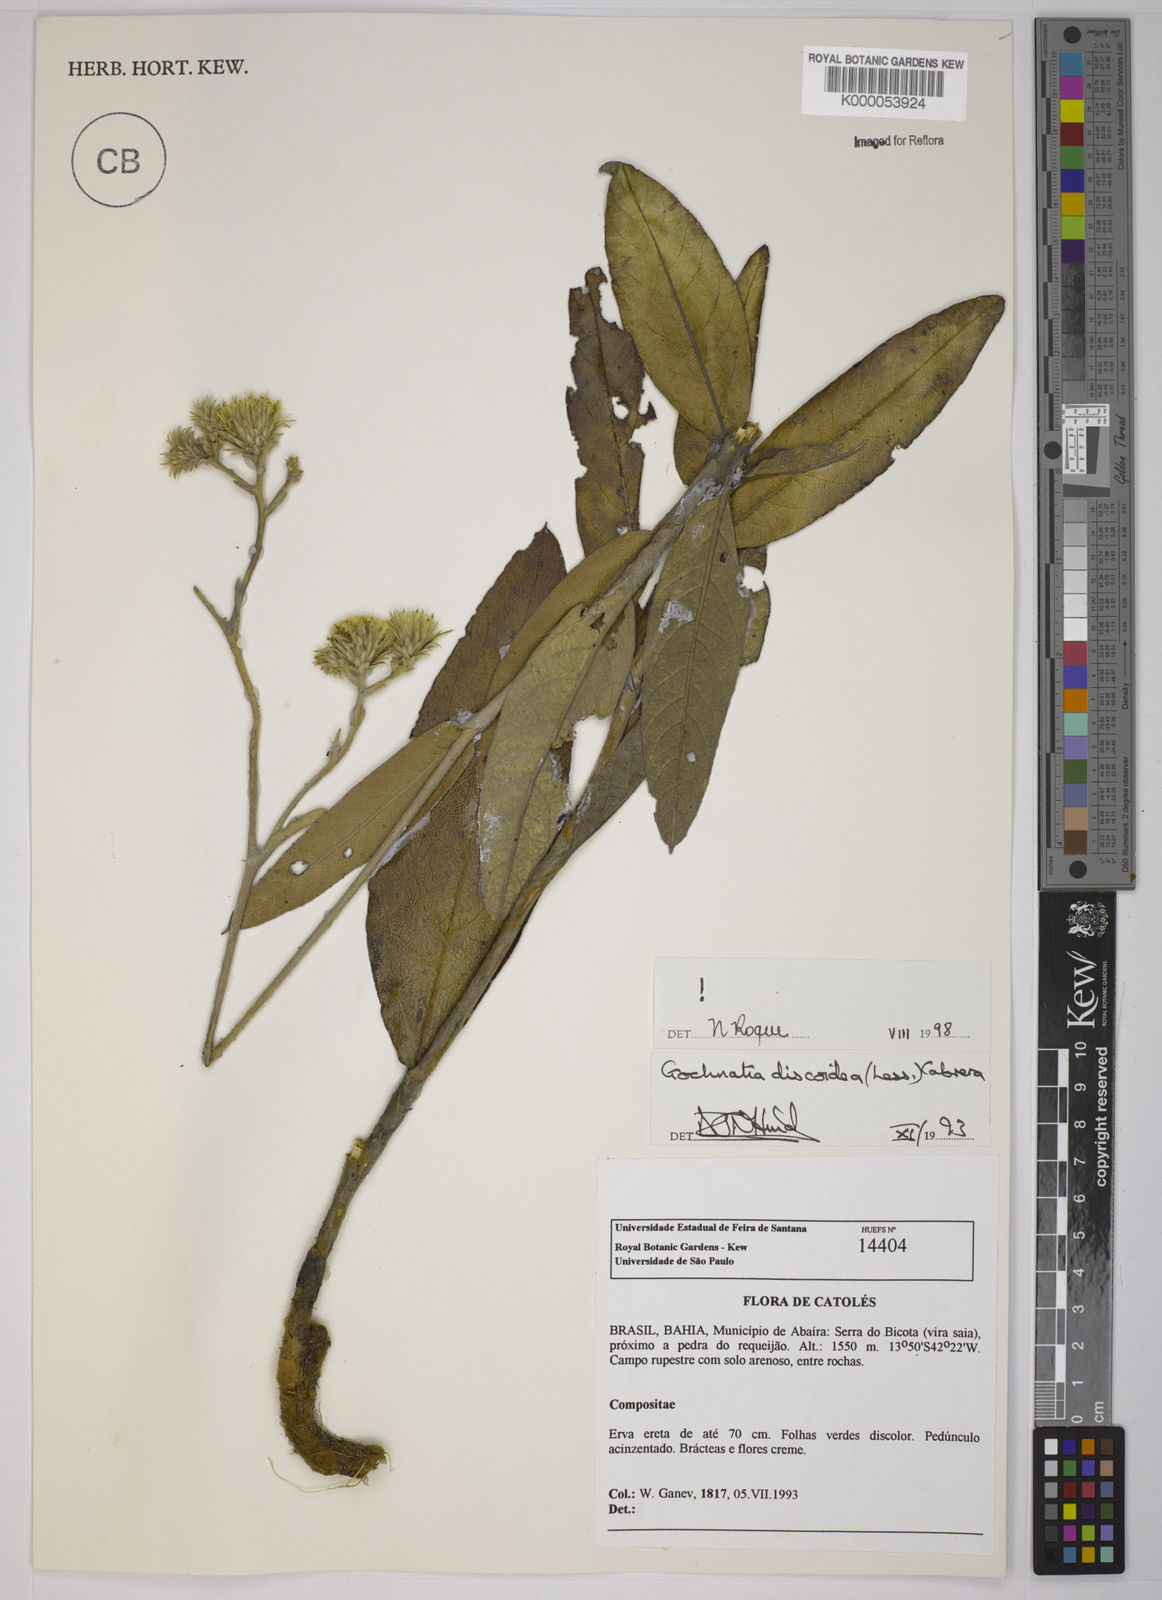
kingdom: Plantae
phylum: Tracheophyta
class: Magnoliopsida
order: Asterales
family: Asteraceae
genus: Richterago
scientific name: Richterago discoidea
